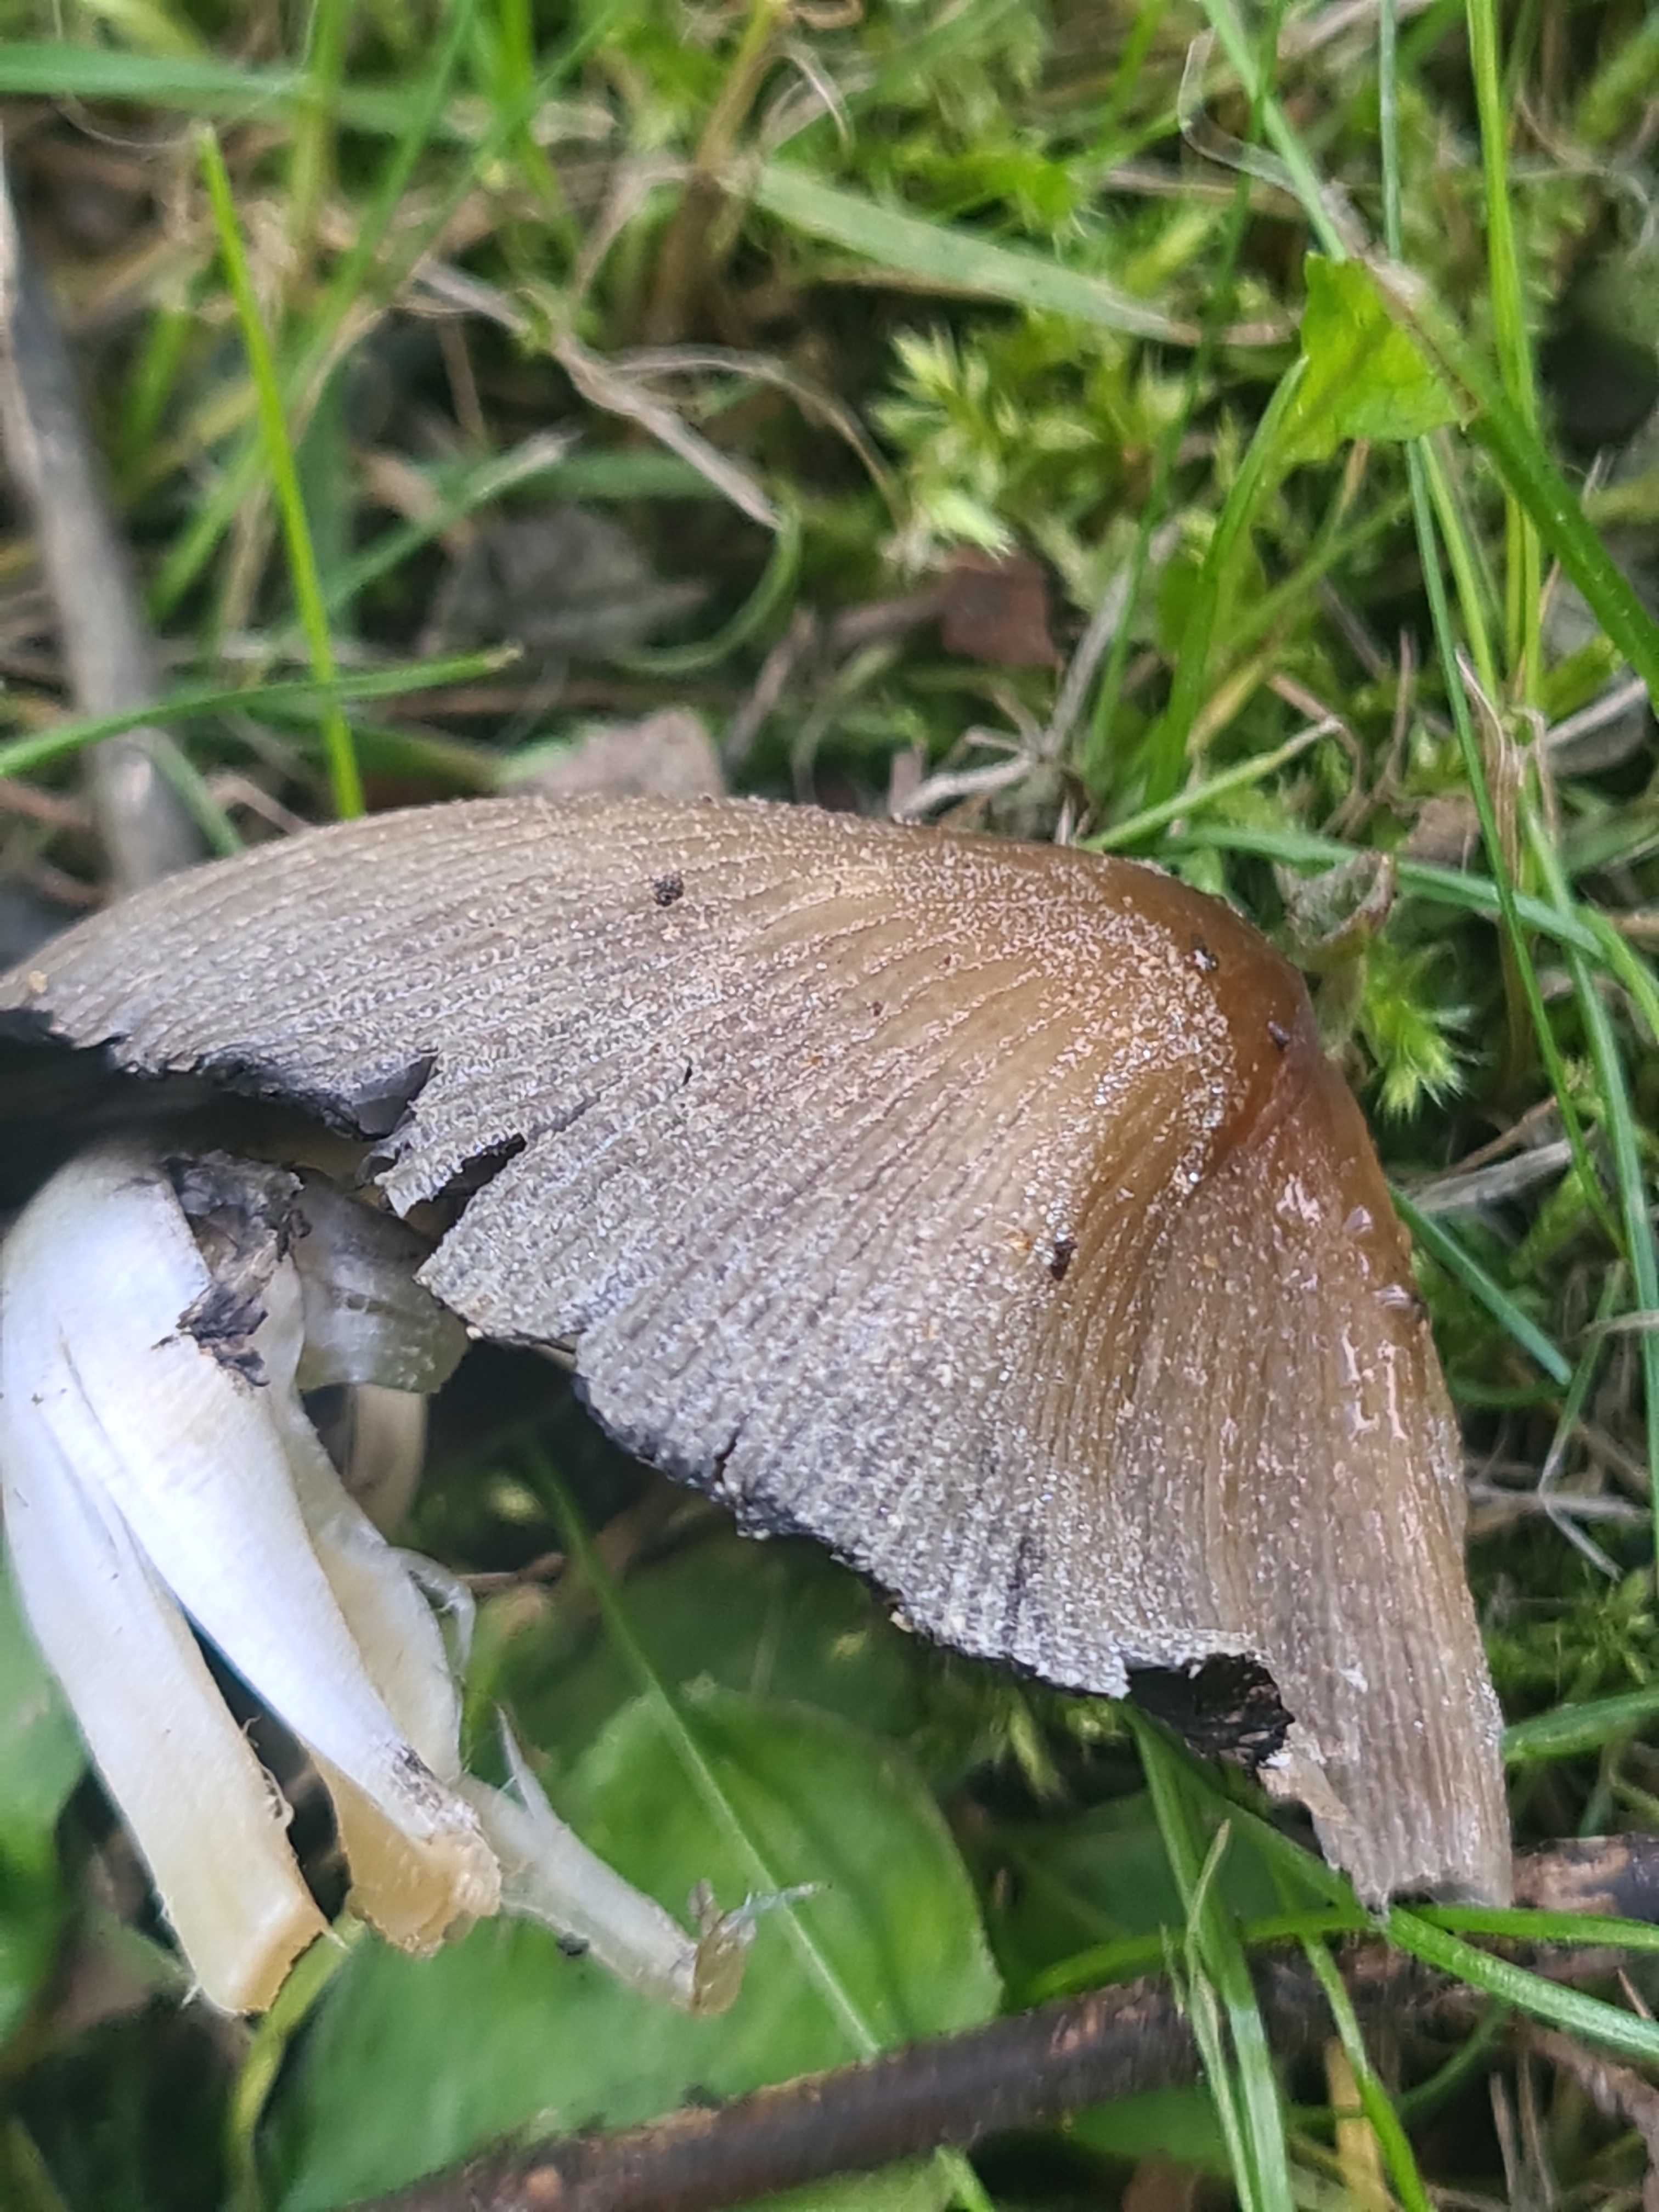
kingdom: Fungi
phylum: Basidiomycota
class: Agaricomycetes
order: Agaricales
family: Psathyrellaceae
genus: Coprinellus
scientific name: Coprinellus micaceus
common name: glimmer-blækhat
